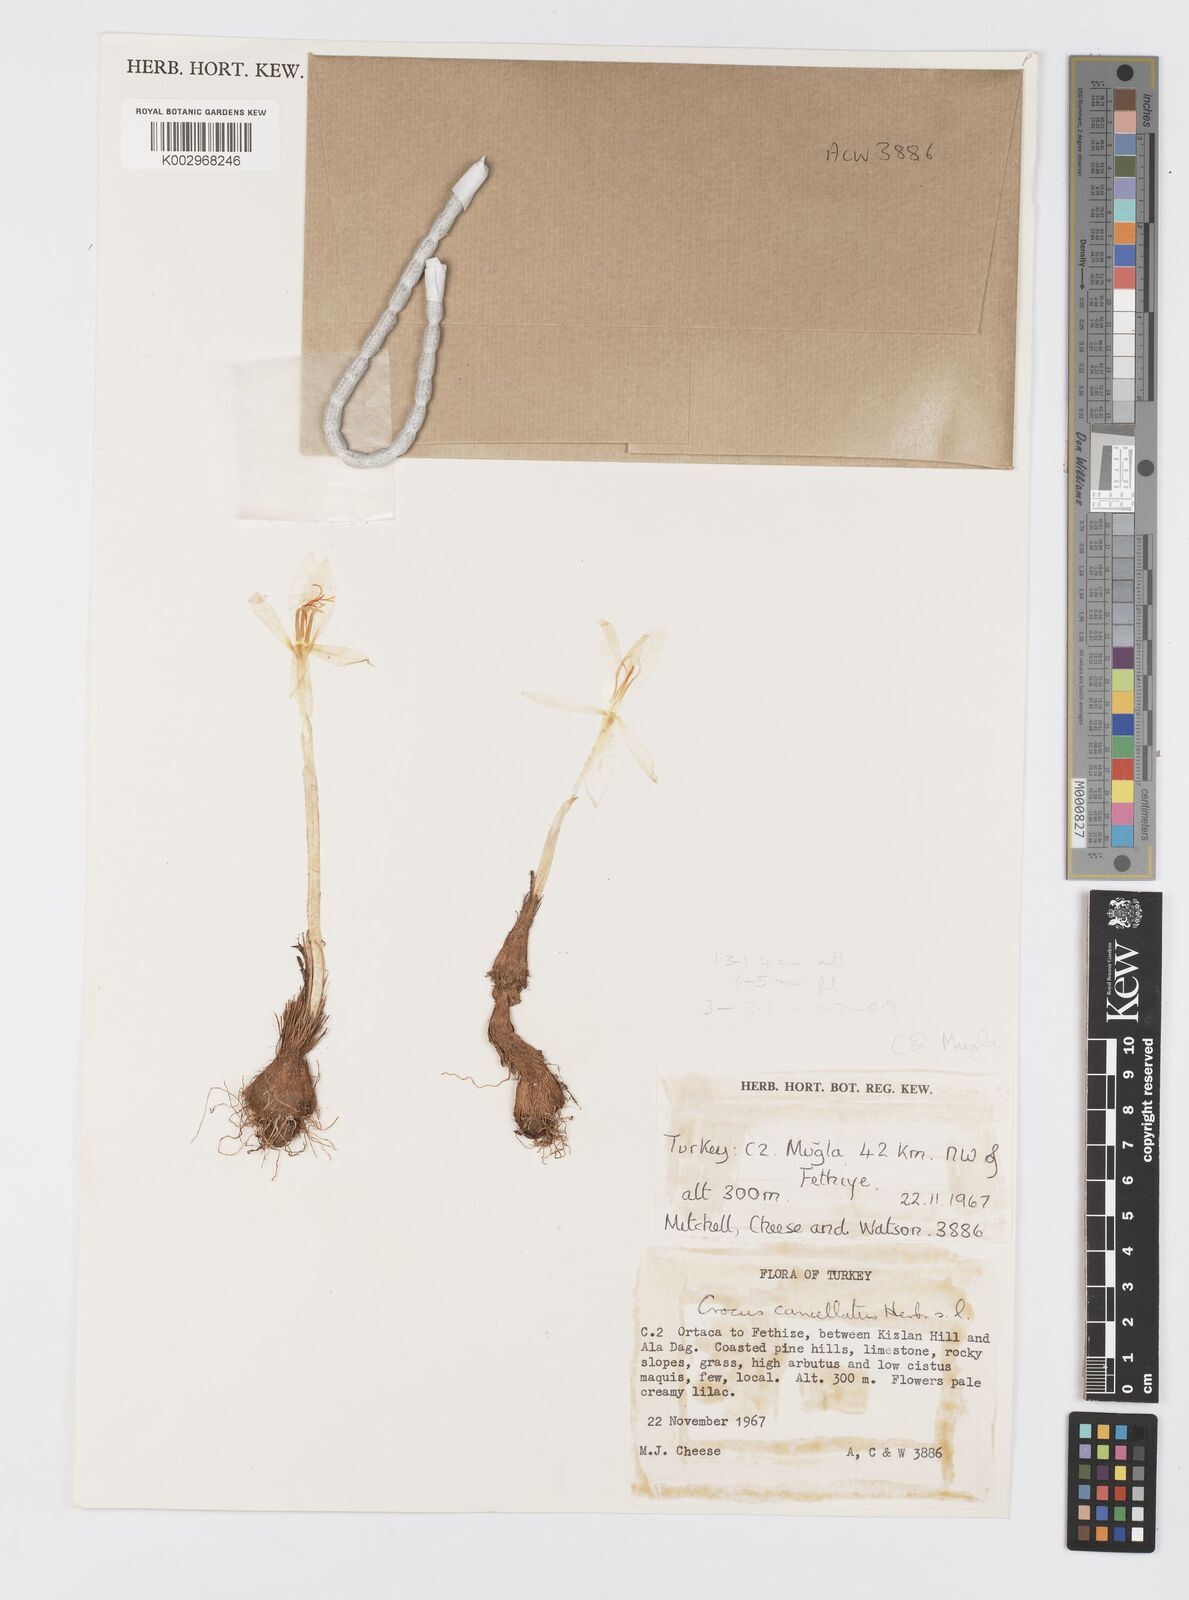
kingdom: Plantae
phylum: Tracheophyta
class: Liliopsida
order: Asparagales
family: Iridaceae
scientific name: Iridaceae
